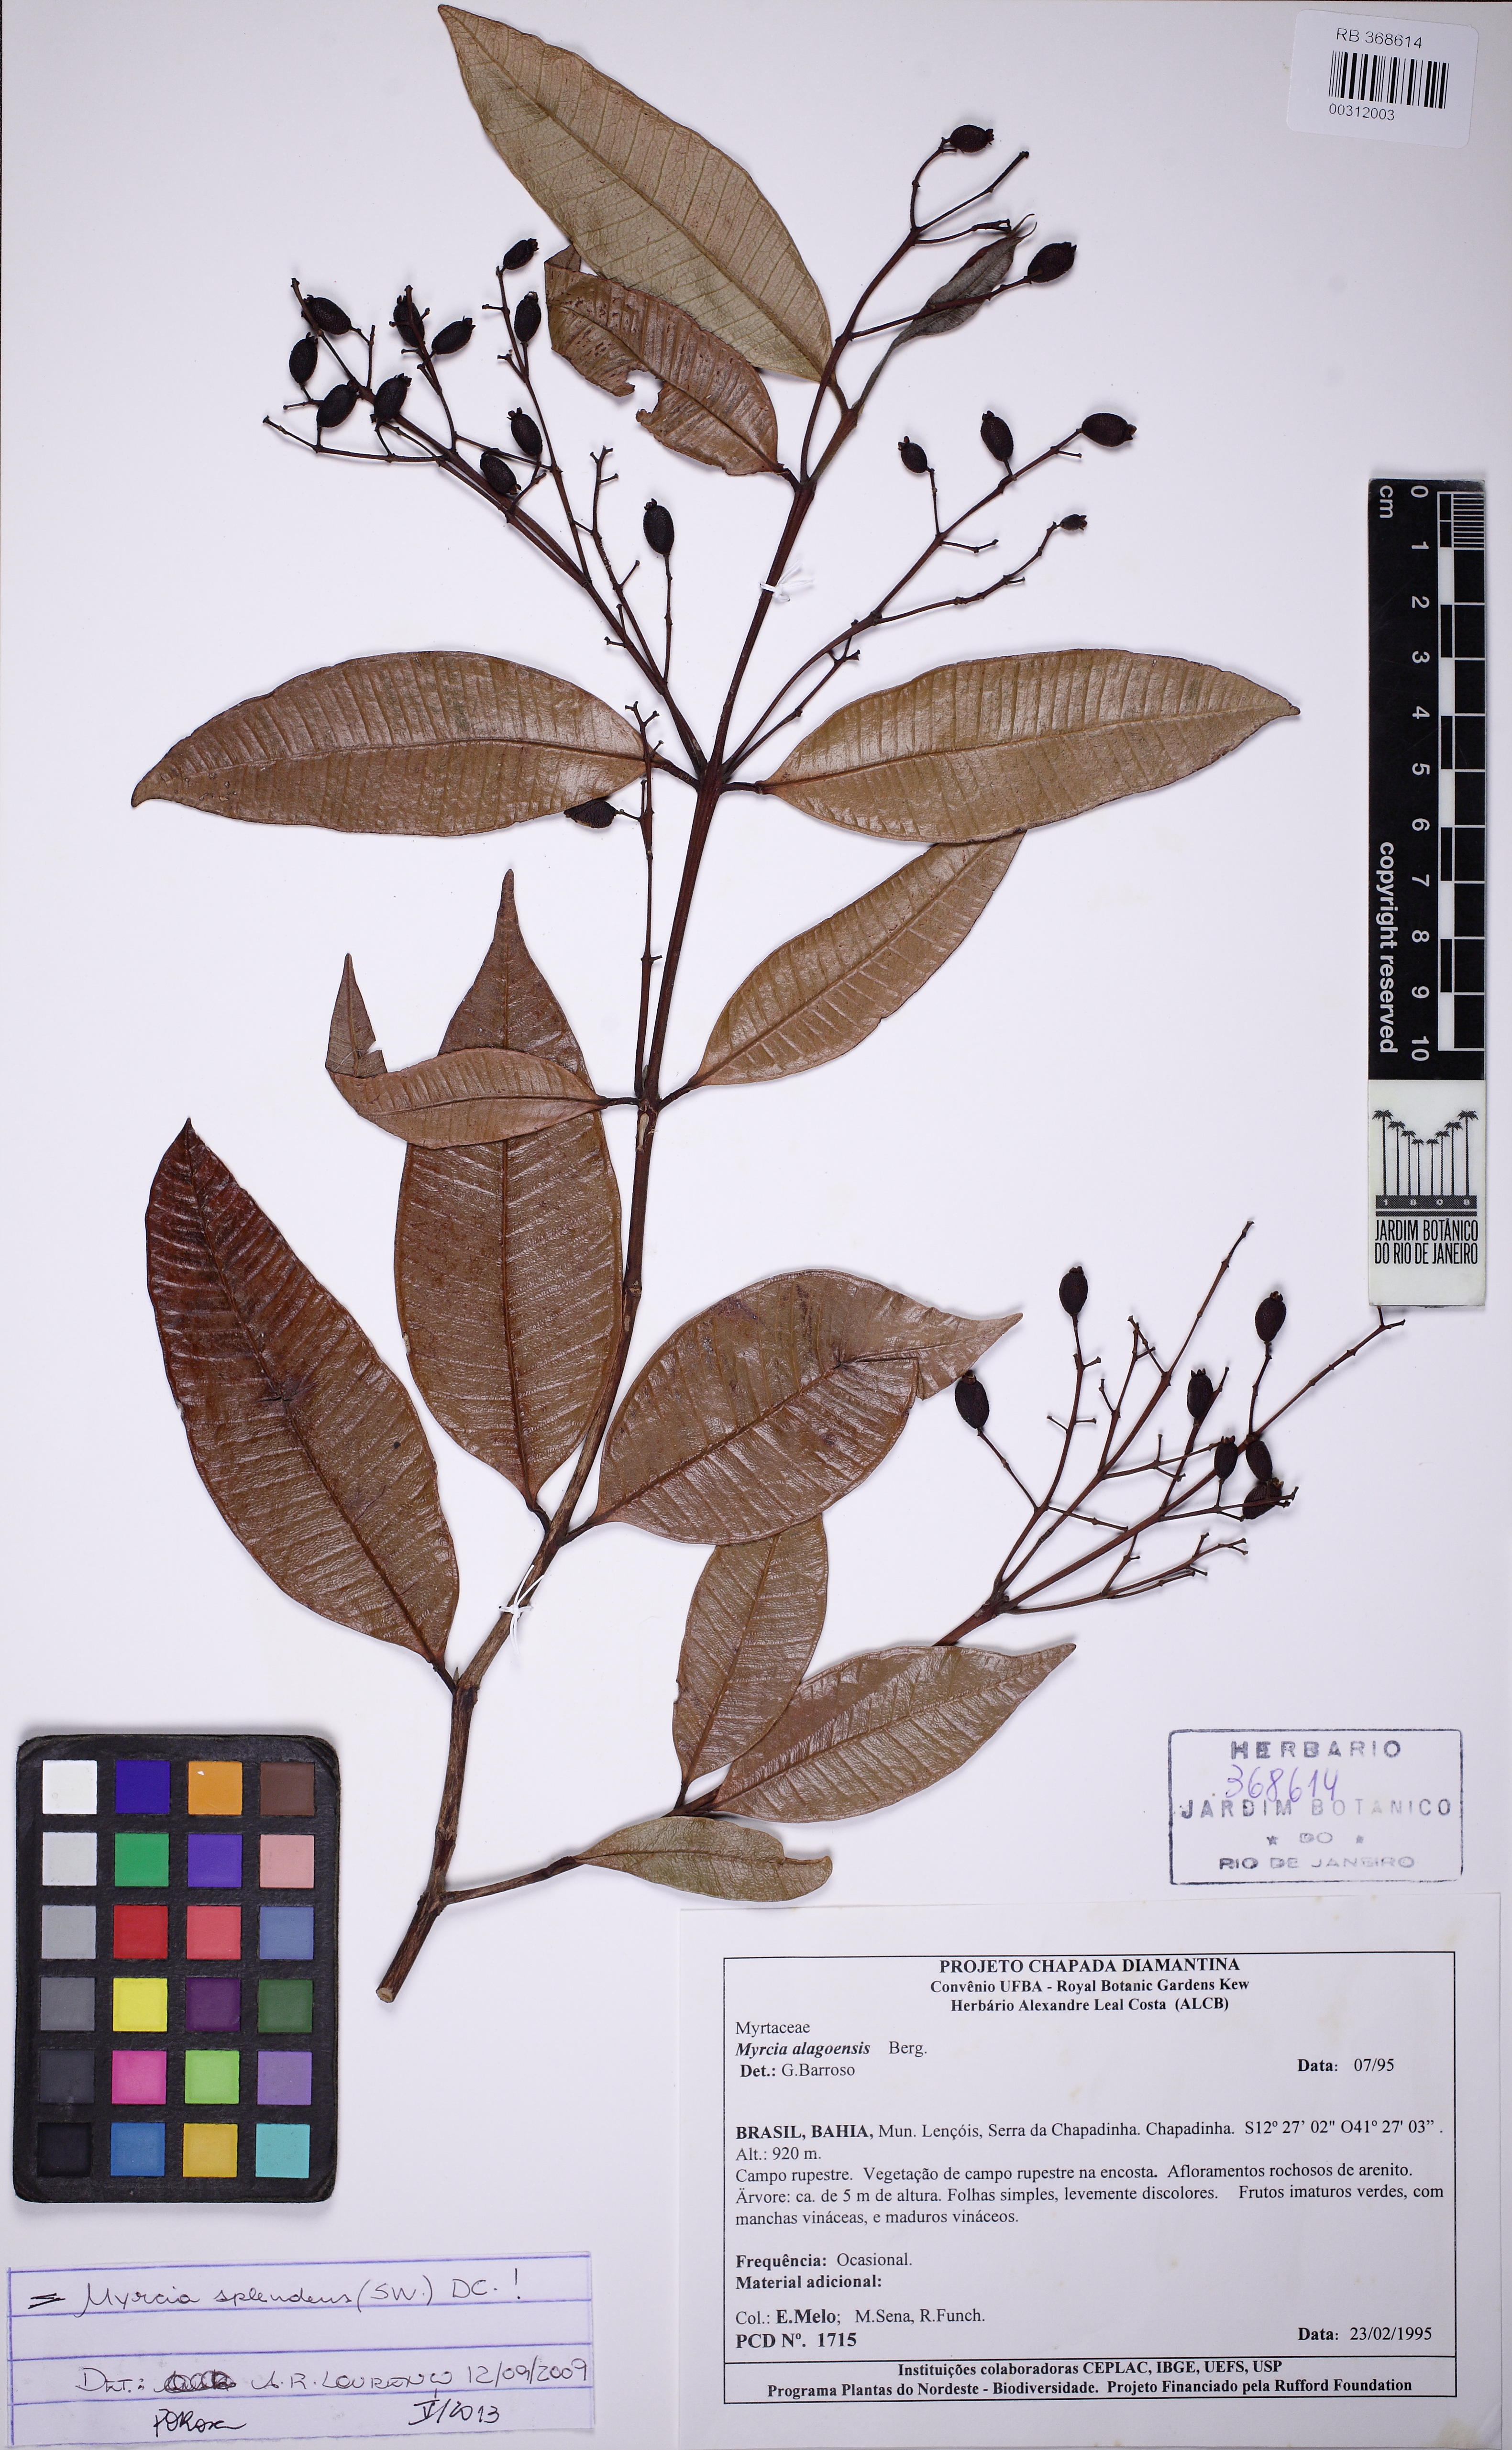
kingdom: Plantae
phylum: Tracheophyta
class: Magnoliopsida
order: Myrtales
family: Myrtaceae
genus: Myrcia
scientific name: Myrcia splendens
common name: Surinam cherry
